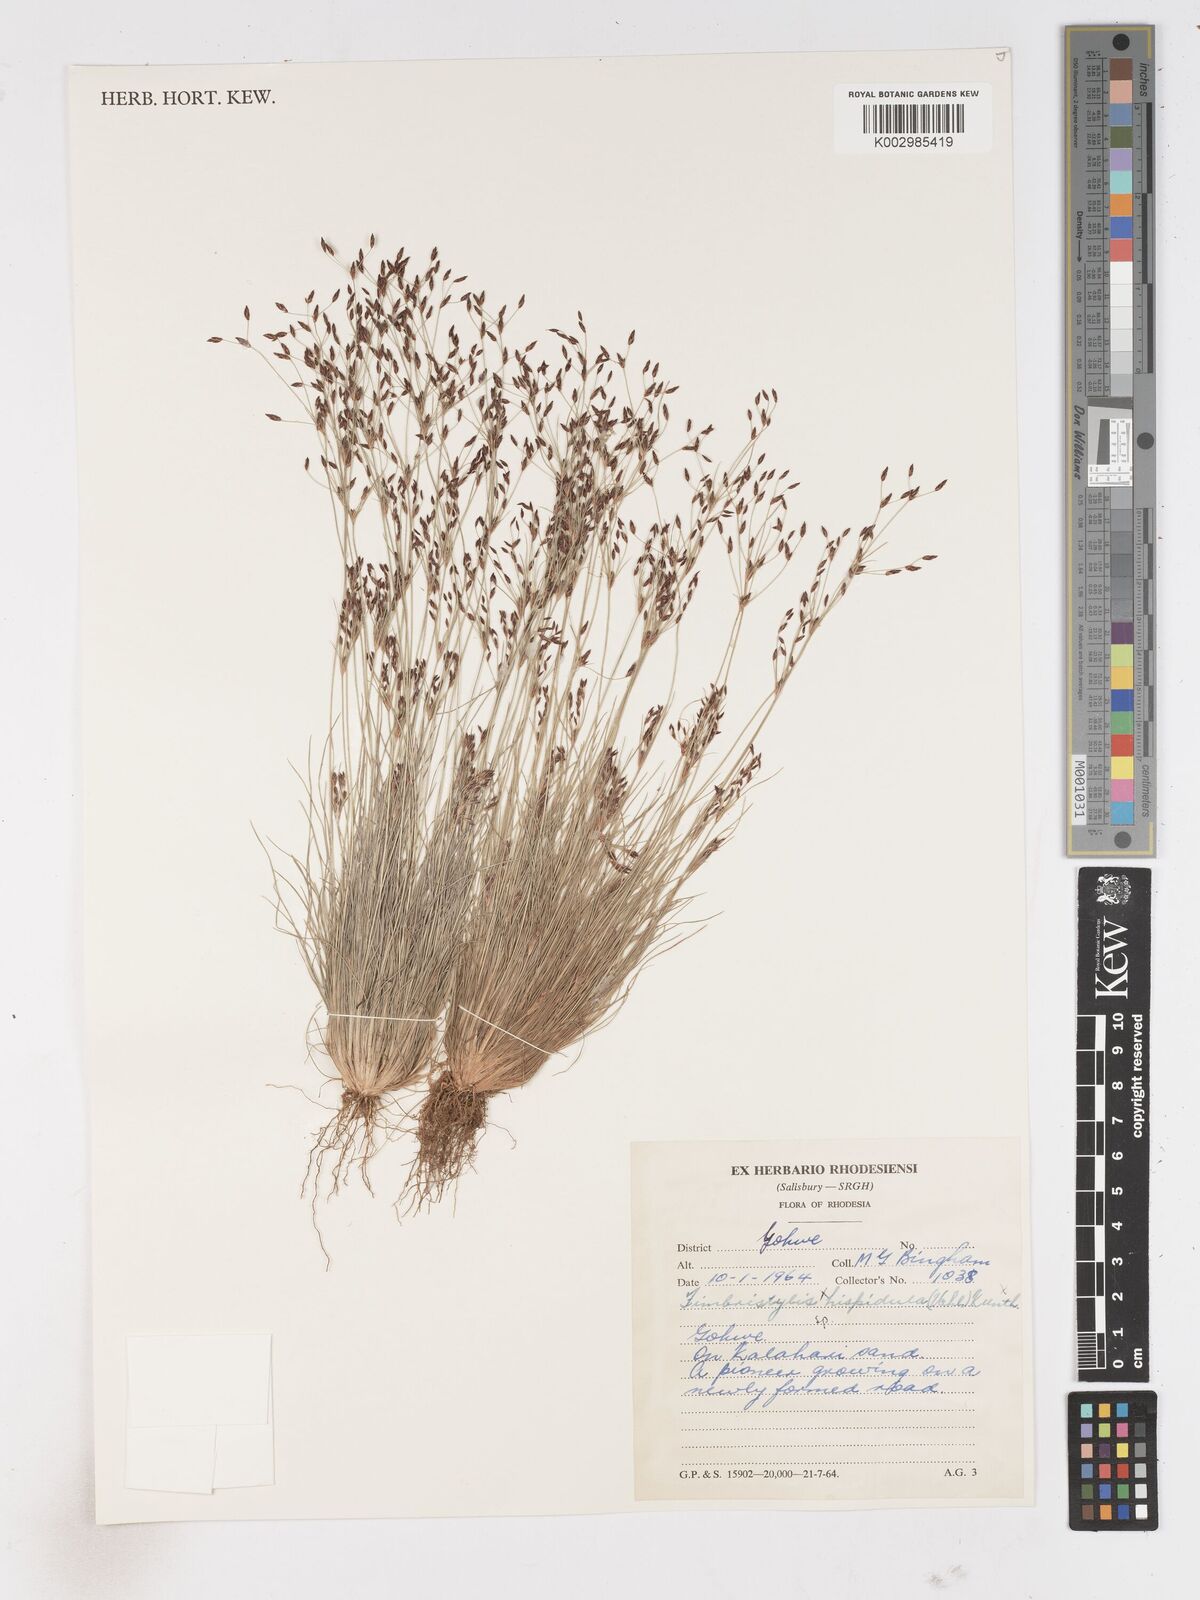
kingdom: Plantae
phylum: Tracheophyta
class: Liliopsida
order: Poales
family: Cyperaceae
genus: Fimbristylis
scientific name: Fimbristylis
